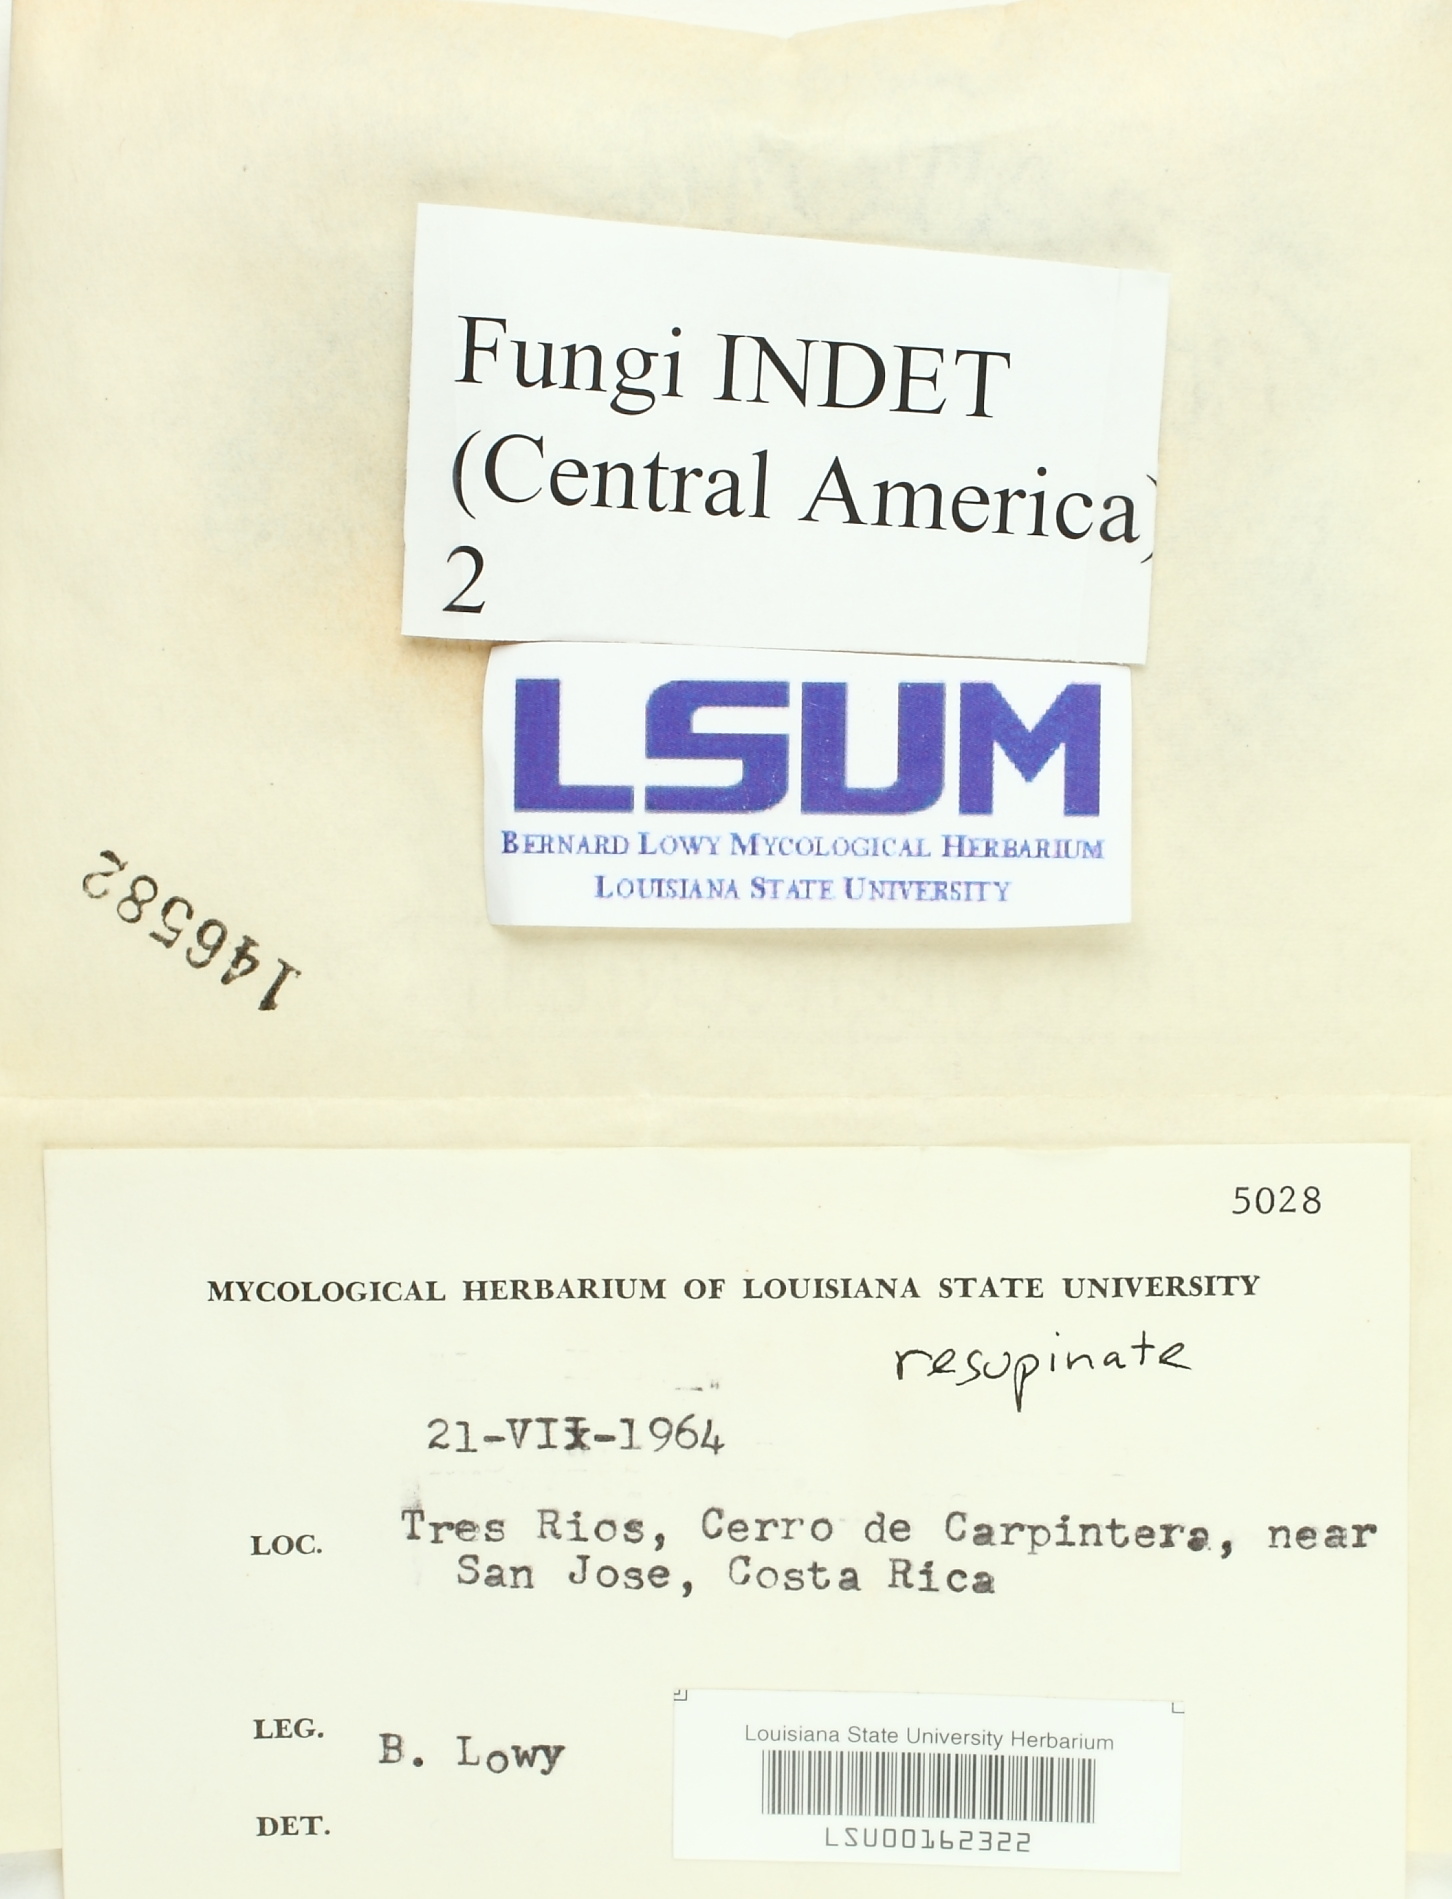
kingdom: Fungi
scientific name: Fungi
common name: Fungi
